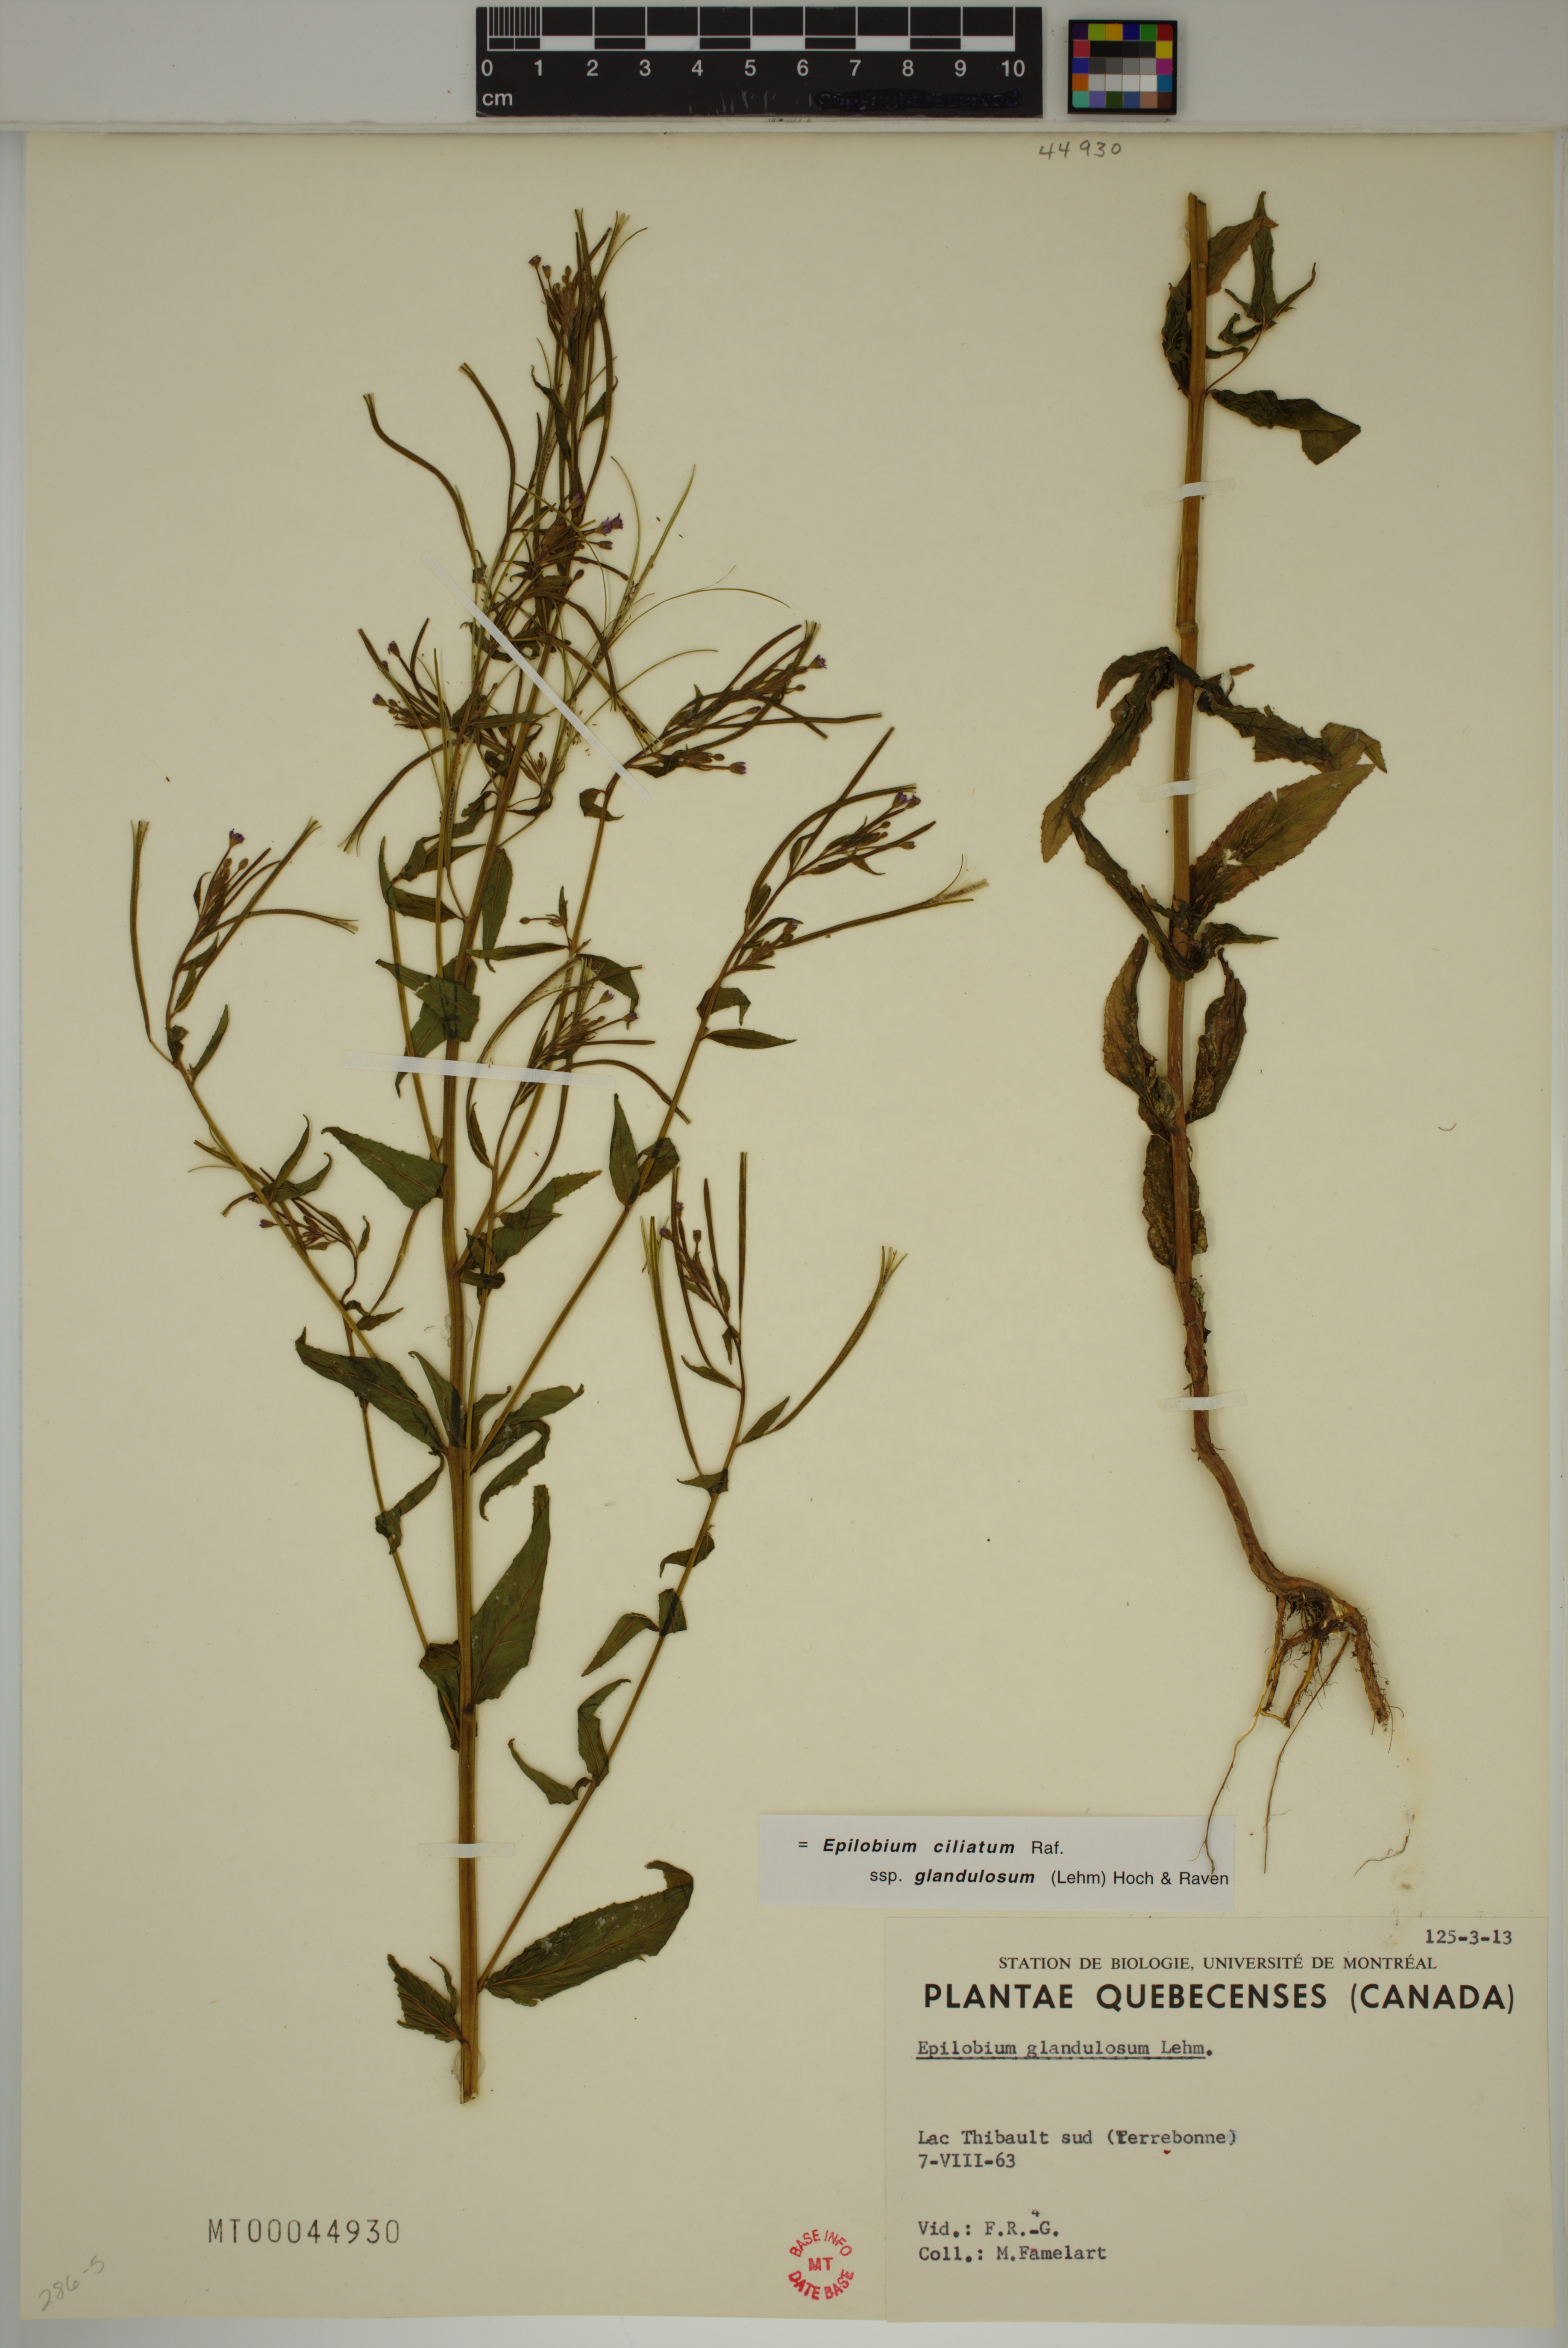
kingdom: Plantae
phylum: Tracheophyta
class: Magnoliopsida
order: Myrtales
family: Onagraceae
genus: Epilobium
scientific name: Epilobium ciliatum
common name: American willowherb
